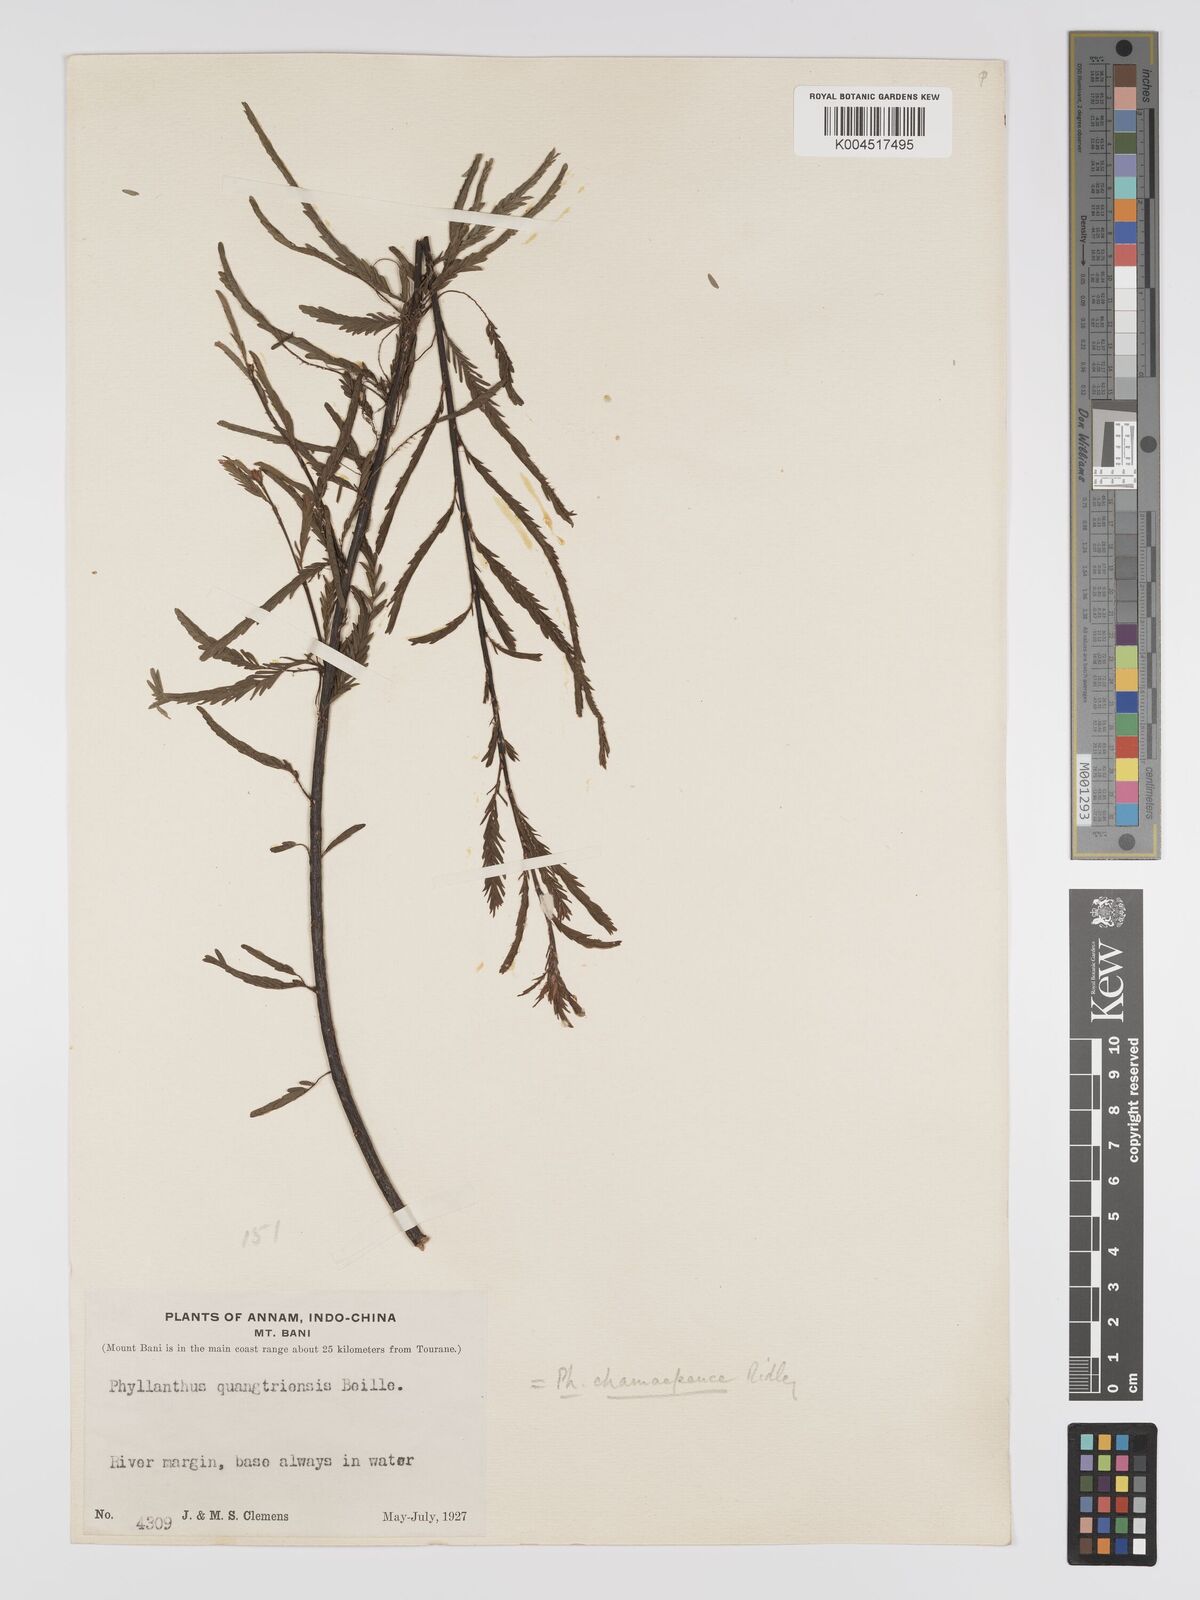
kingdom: Plantae
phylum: Tracheophyta
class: Magnoliopsida
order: Malpighiales
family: Phyllanthaceae
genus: Phyllanthus
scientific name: Phyllanthus chamaepeuce
